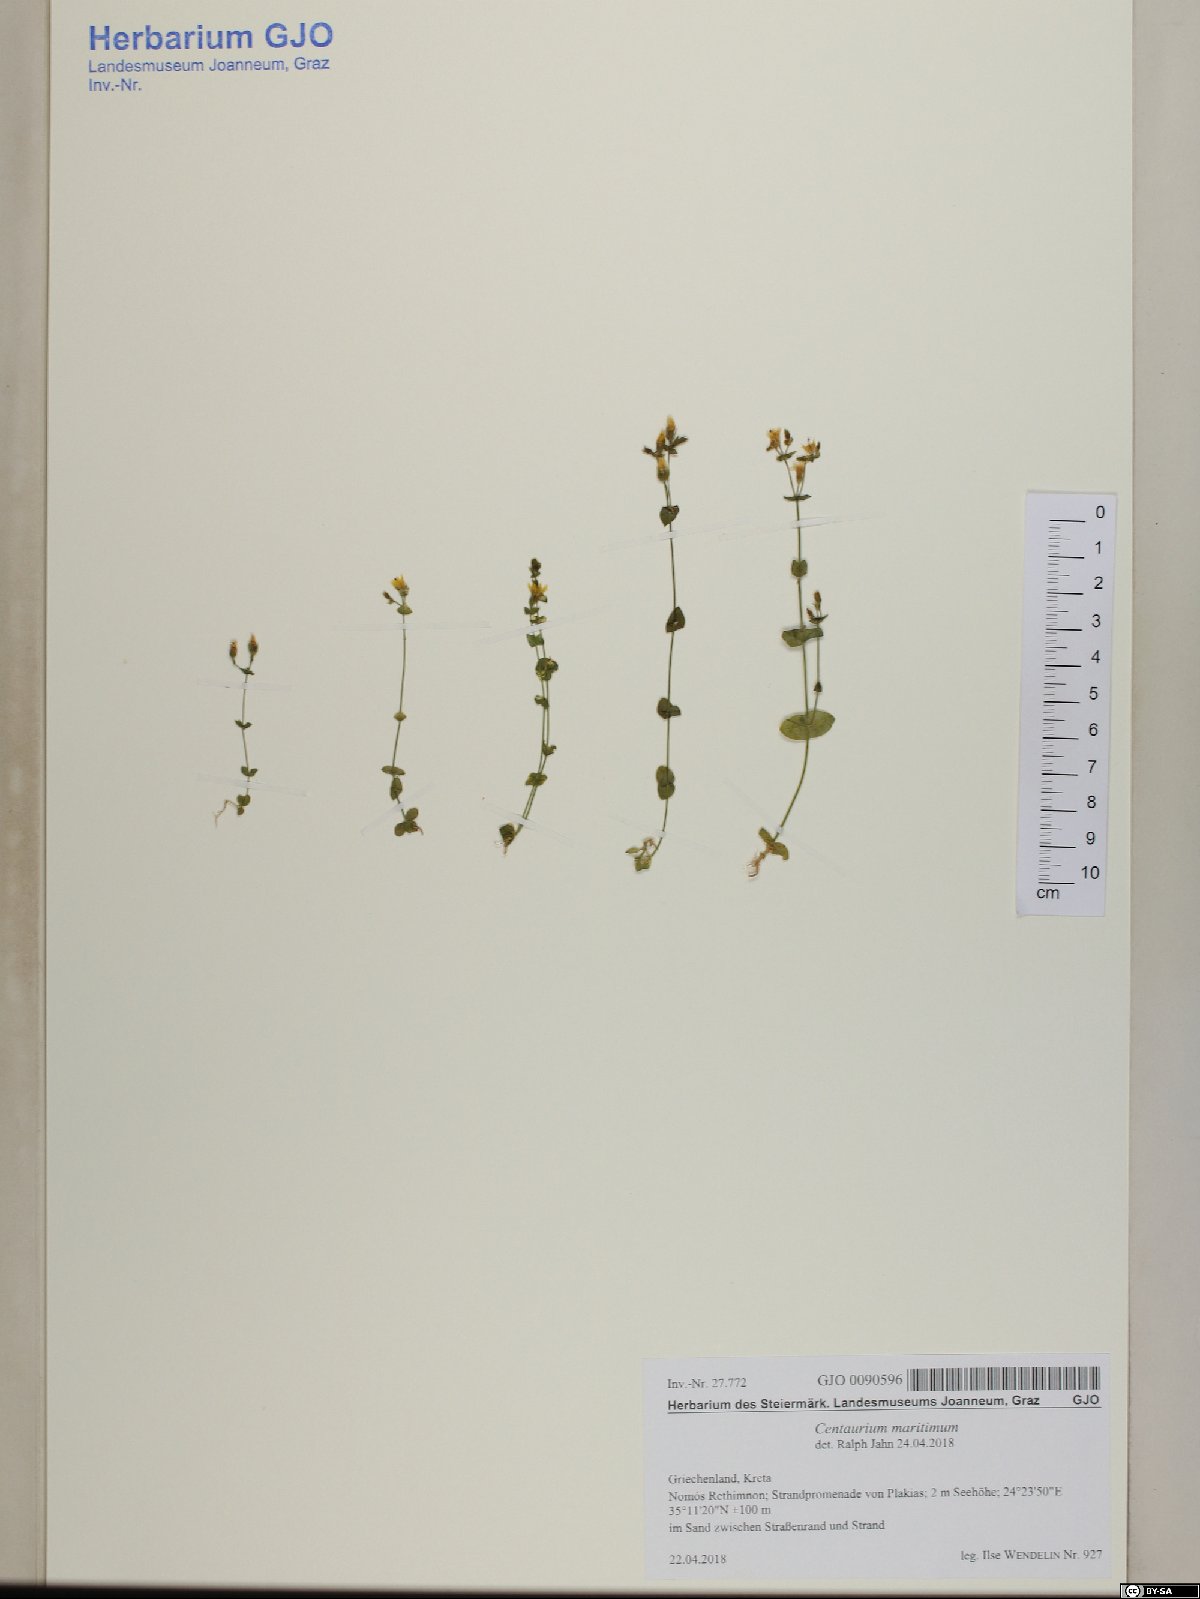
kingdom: Plantae
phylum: Tracheophyta
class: Magnoliopsida
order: Gentianales
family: Gentianaceae
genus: Centaurium
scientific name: Centaurium maritimum
